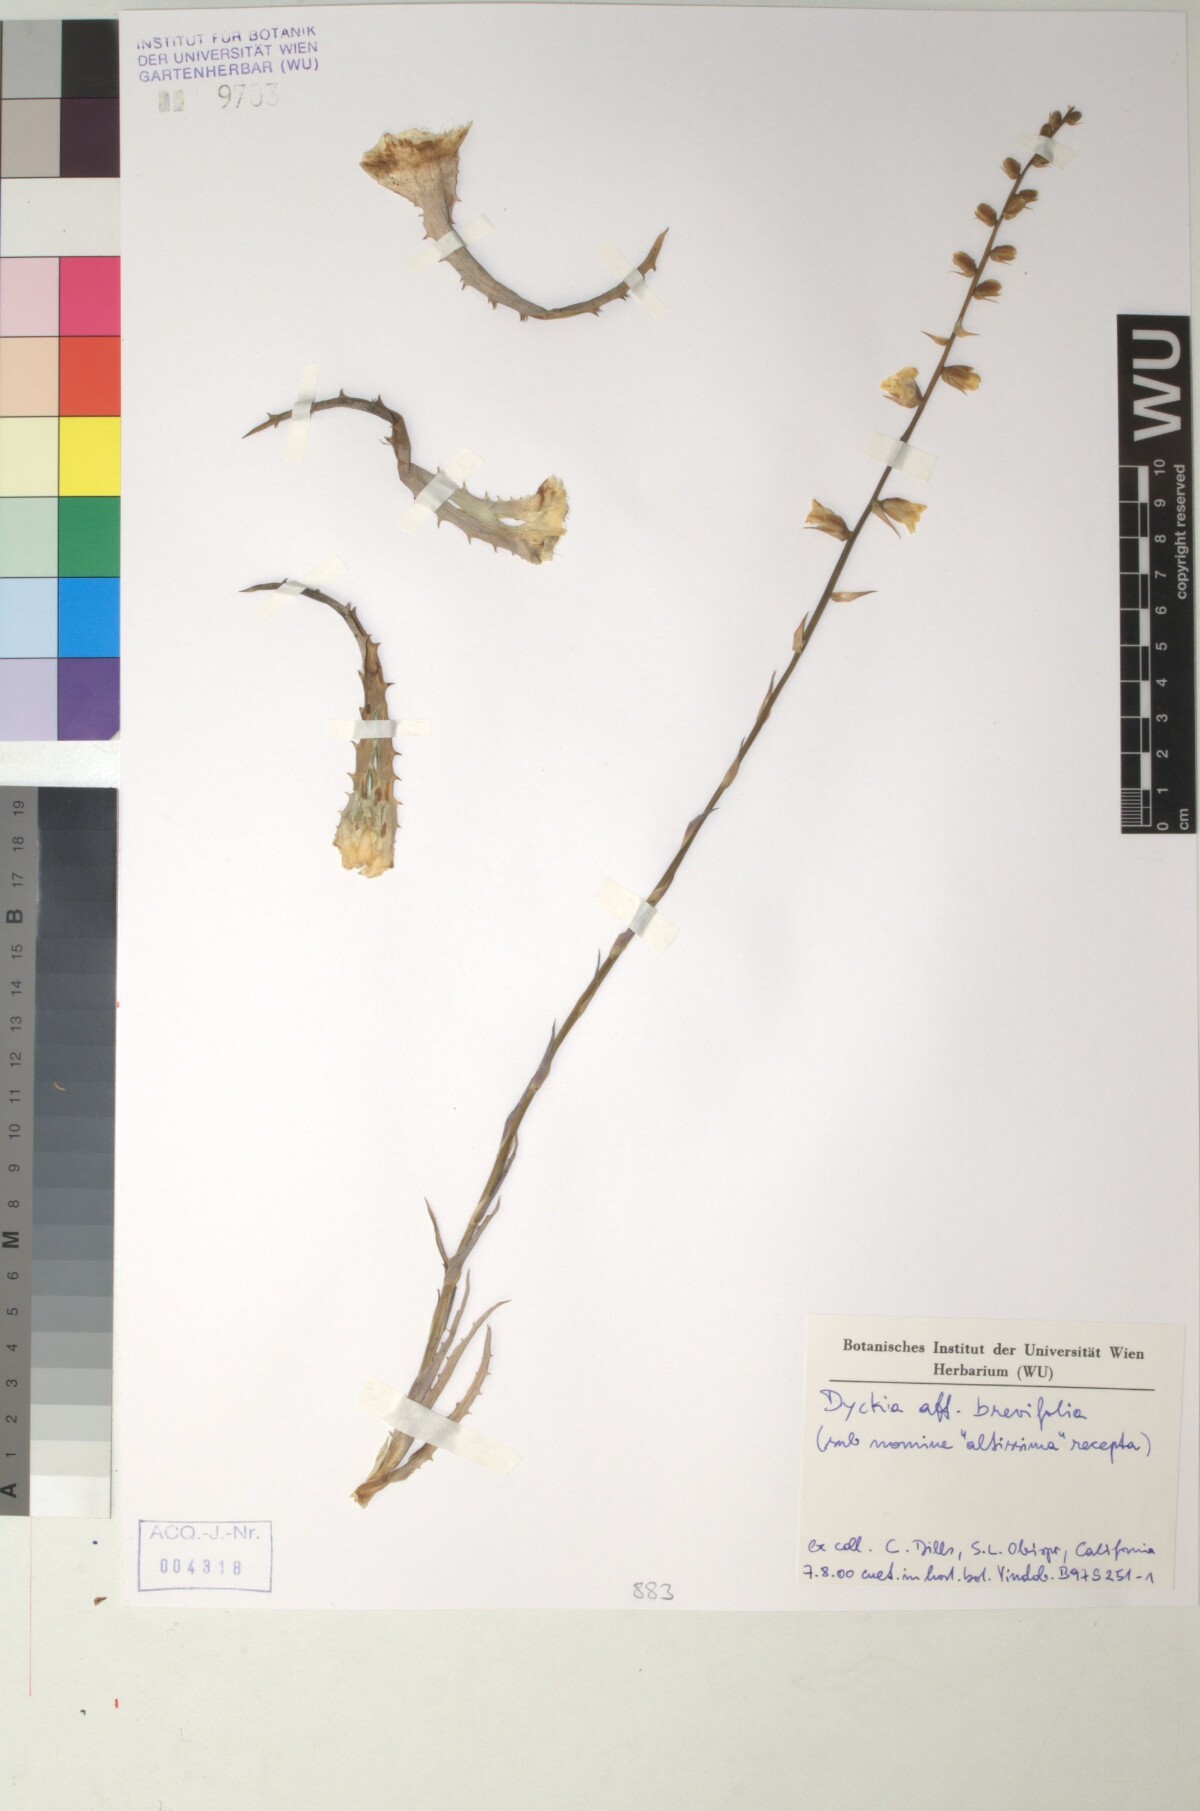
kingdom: Plantae
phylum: Tracheophyta
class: Liliopsida
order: Poales
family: Bromeliaceae
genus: Dyckia
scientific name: Dyckia brevifolia
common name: Sawblade
